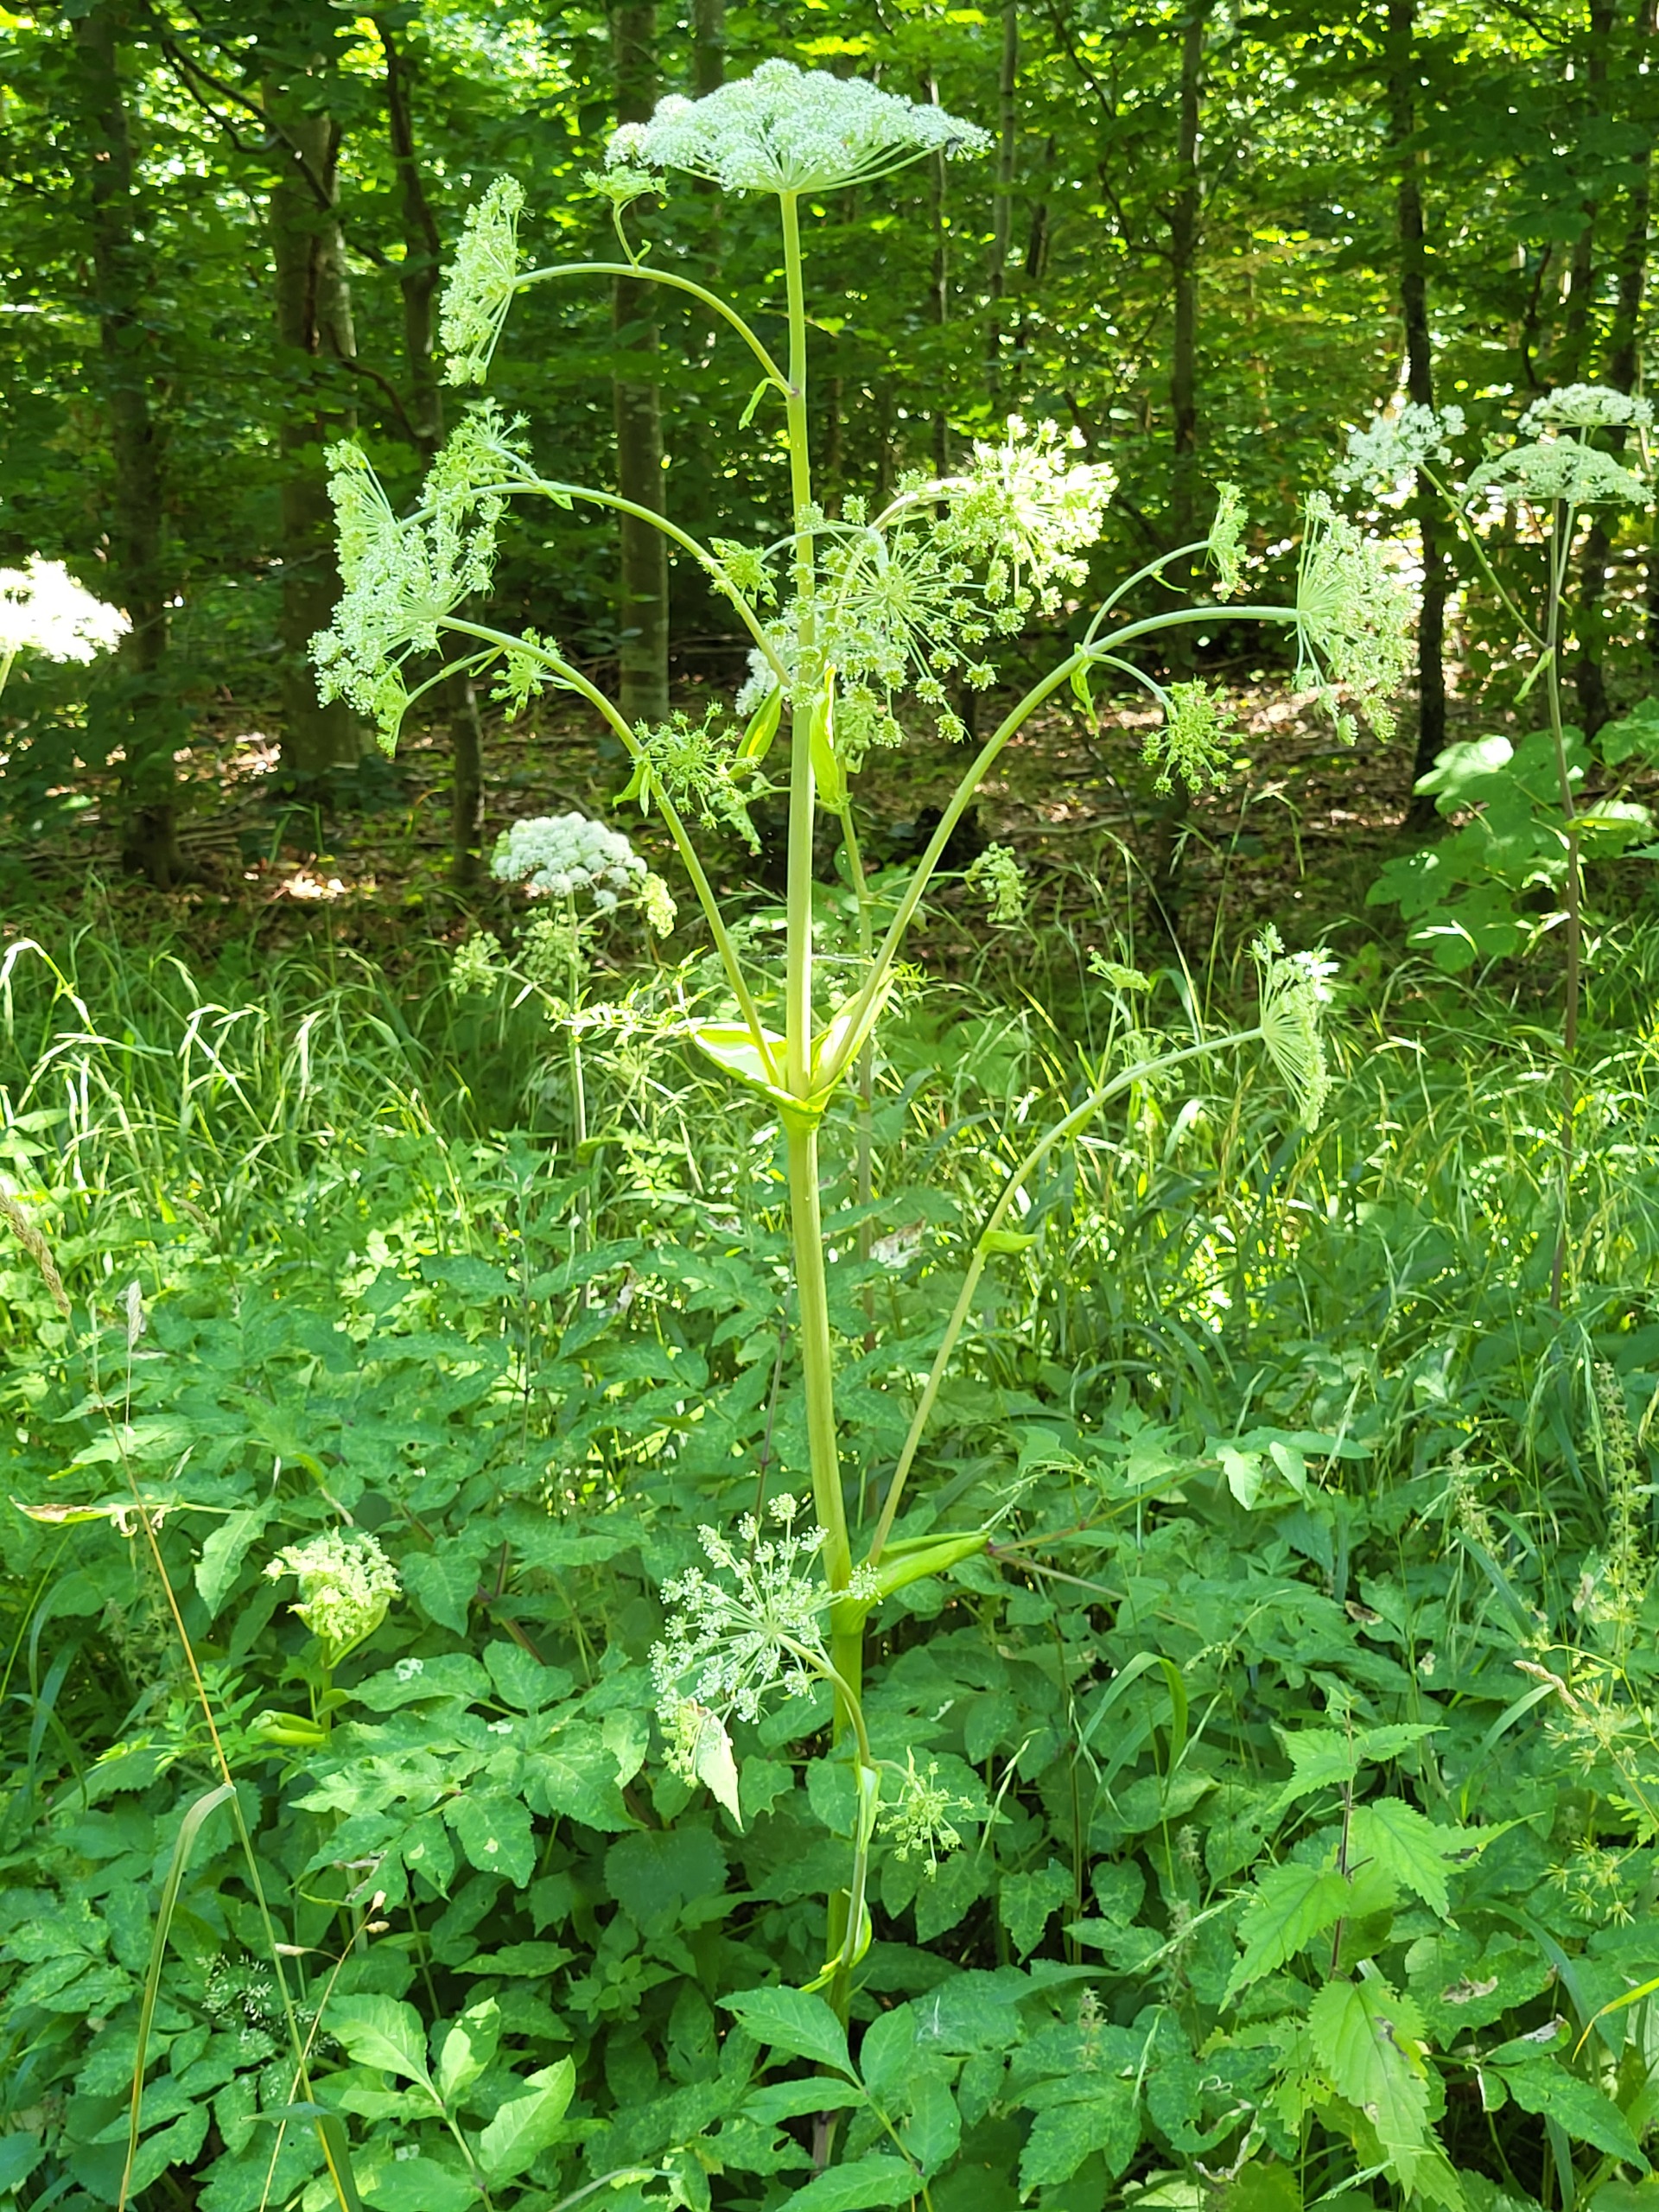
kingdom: Plantae
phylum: Tracheophyta
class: Magnoliopsida
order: Apiales
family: Apiaceae
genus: Angelica
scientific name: Angelica sylvestris
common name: Angelik
